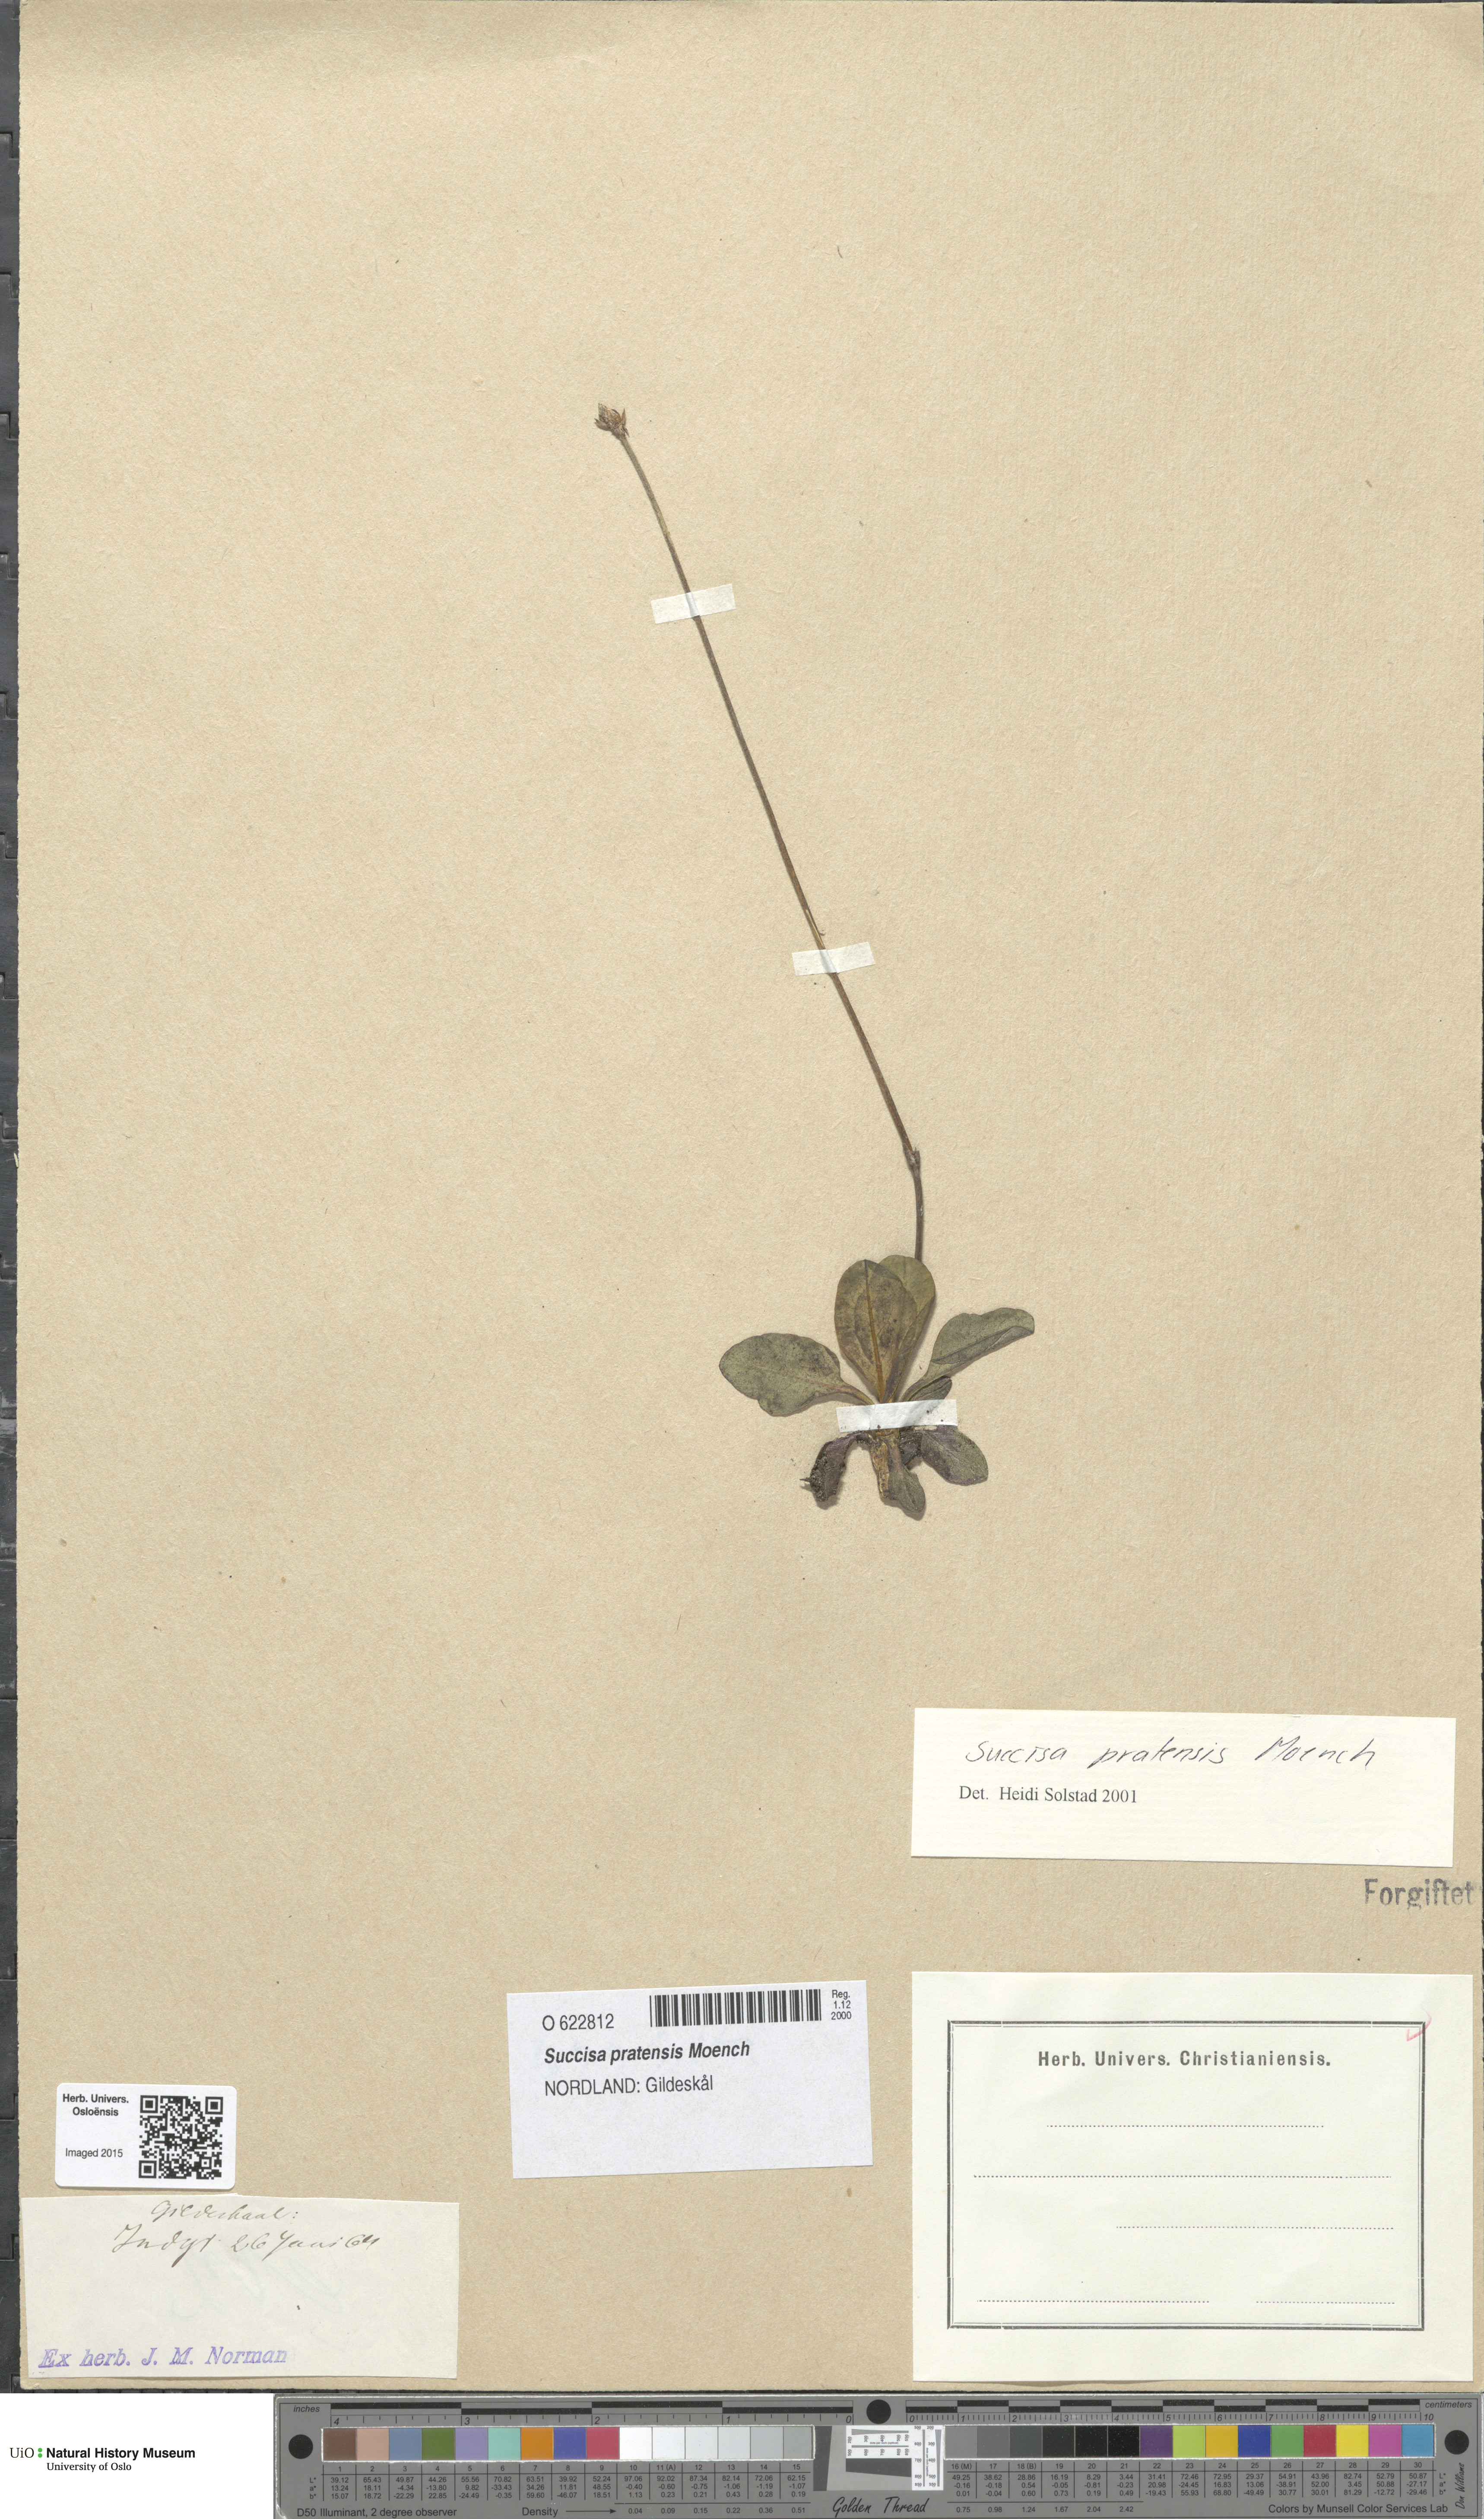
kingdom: Plantae
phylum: Tracheophyta
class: Magnoliopsida
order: Dipsacales
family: Caprifoliaceae
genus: Succisa
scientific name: Succisa pratensis
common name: Devil's-bit
